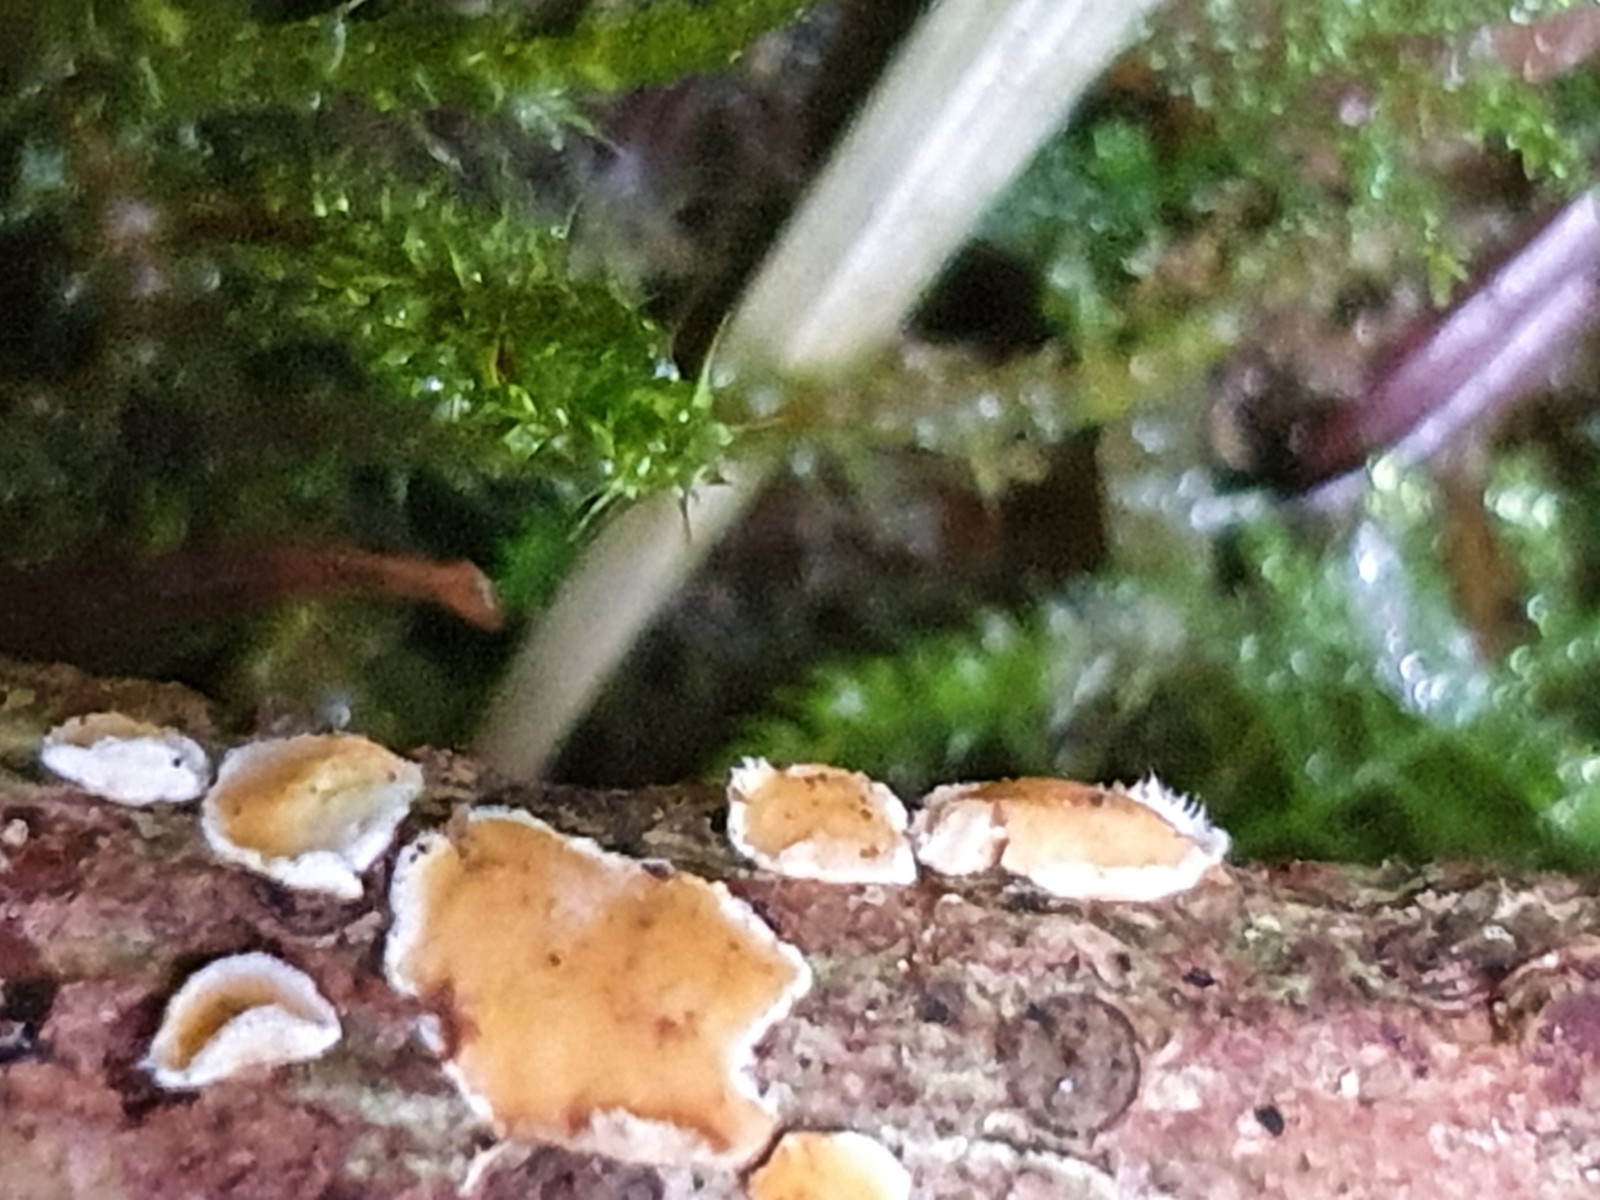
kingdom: Fungi
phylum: Basidiomycota
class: Agaricomycetes
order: Russulales
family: Stereaceae
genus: Aleurodiscus
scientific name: Aleurodiscus amorphus
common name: orange skiveskorpe
